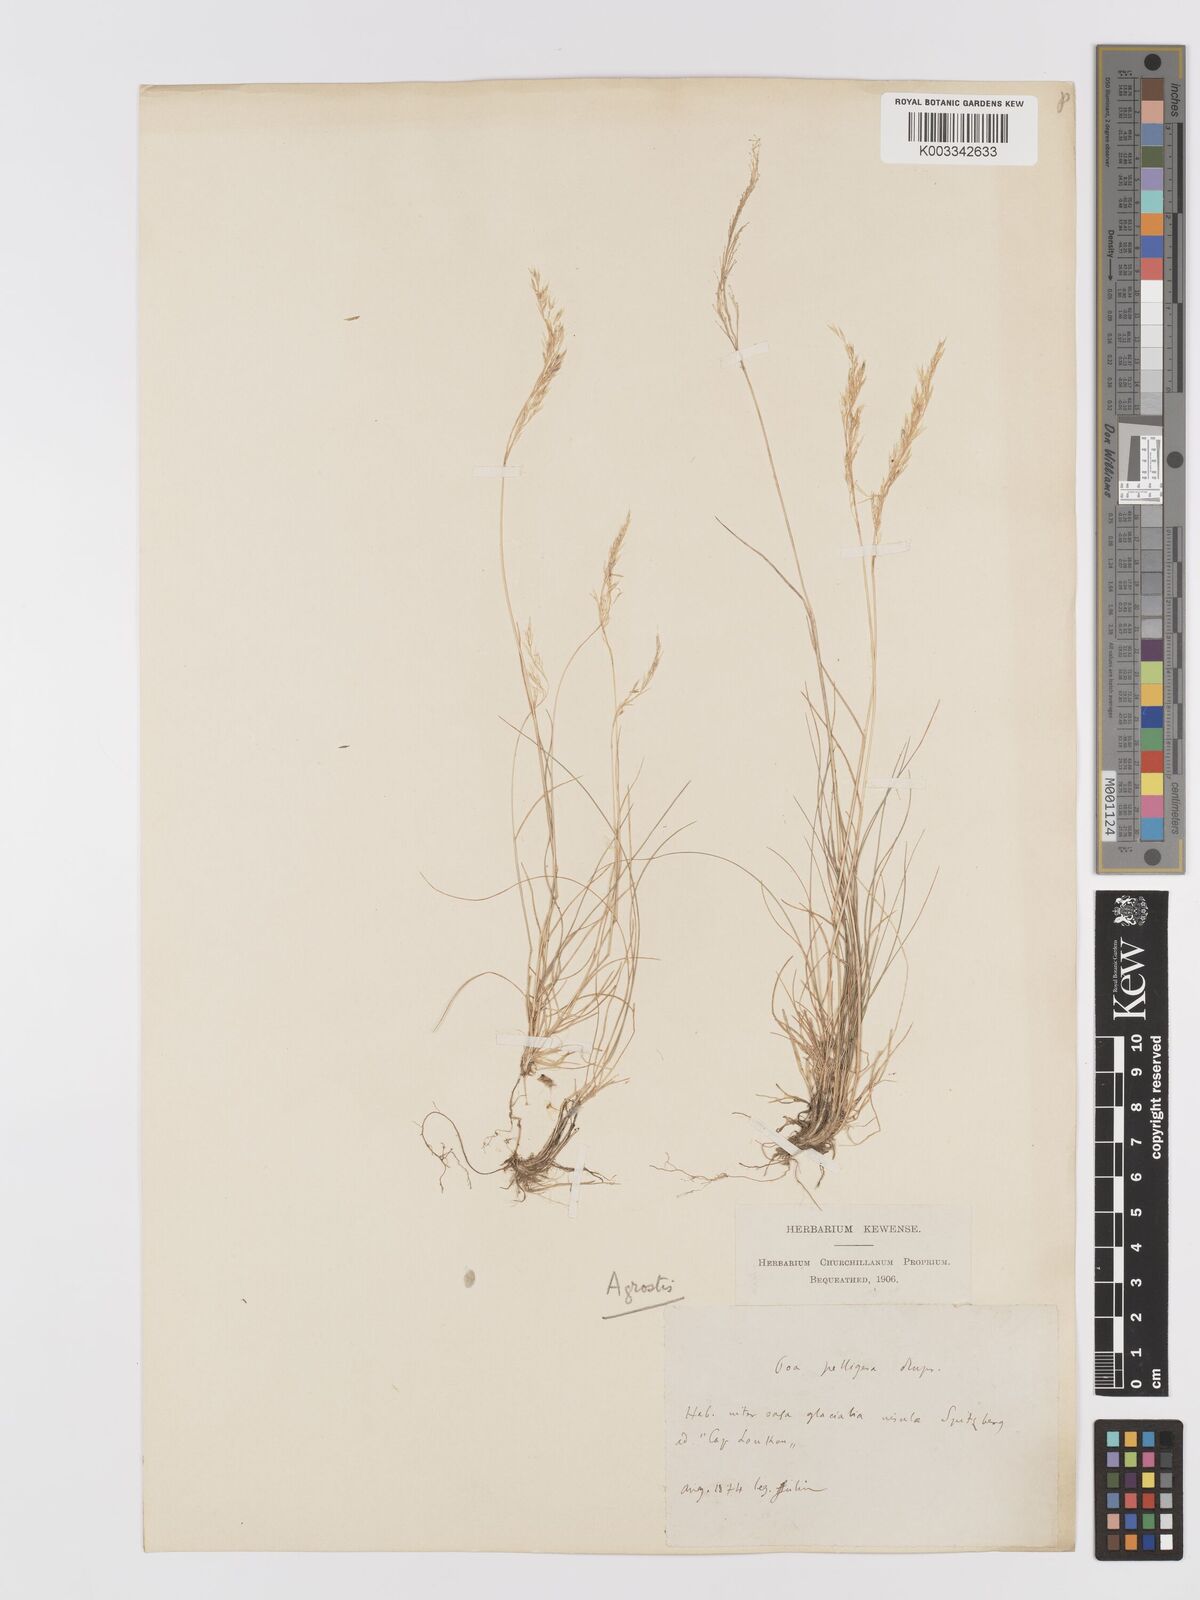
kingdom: Plantae
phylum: Tracheophyta
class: Liliopsida
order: Poales
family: Poaceae
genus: Agrostis
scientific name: Agrostis
